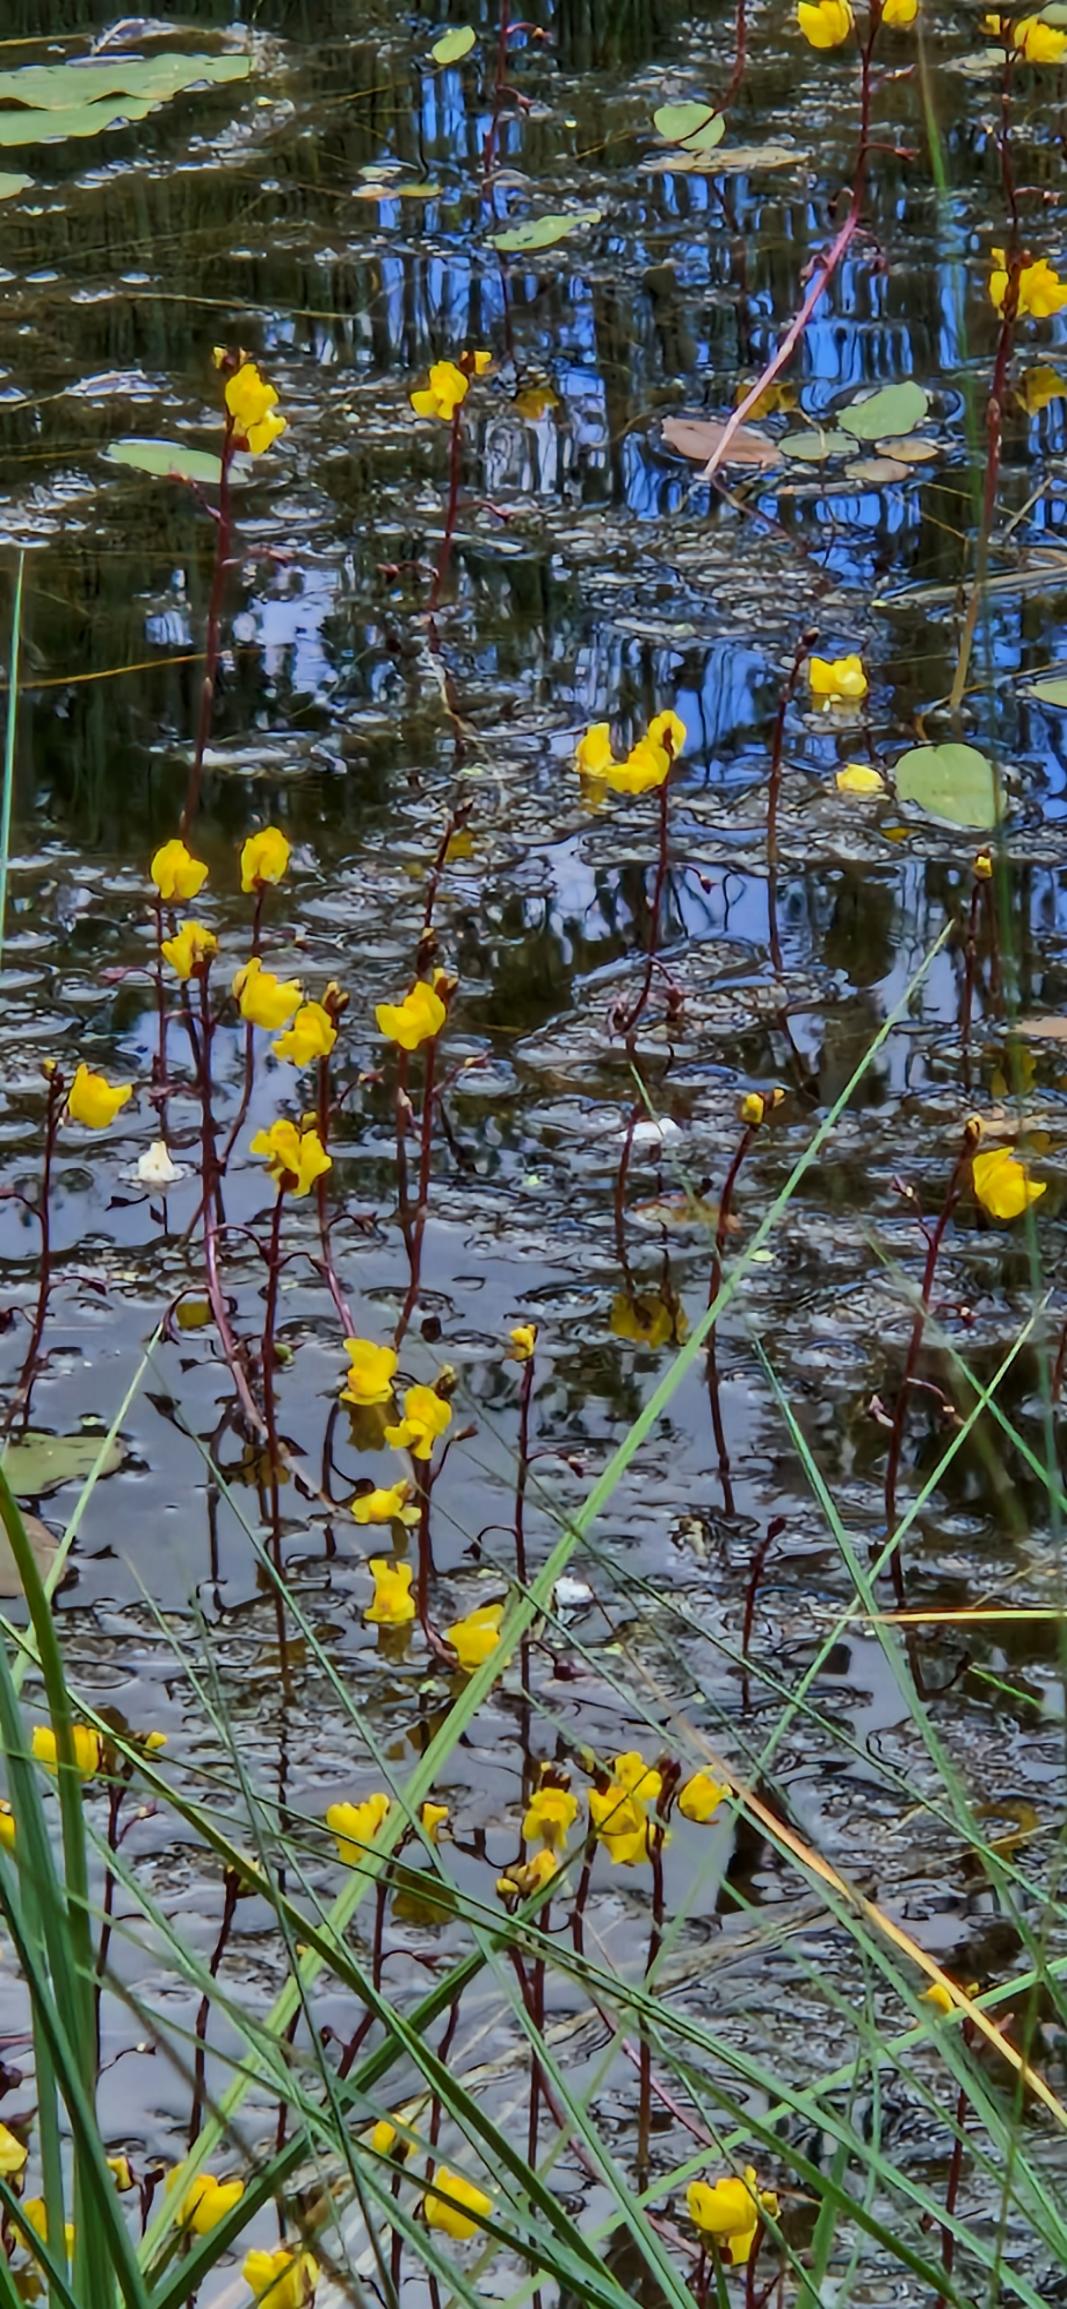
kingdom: Plantae
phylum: Tracheophyta
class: Magnoliopsida
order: Lamiales
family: Lentibulariaceae
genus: Utricularia
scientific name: Utricularia vulgaris
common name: Almindelig blærerod
